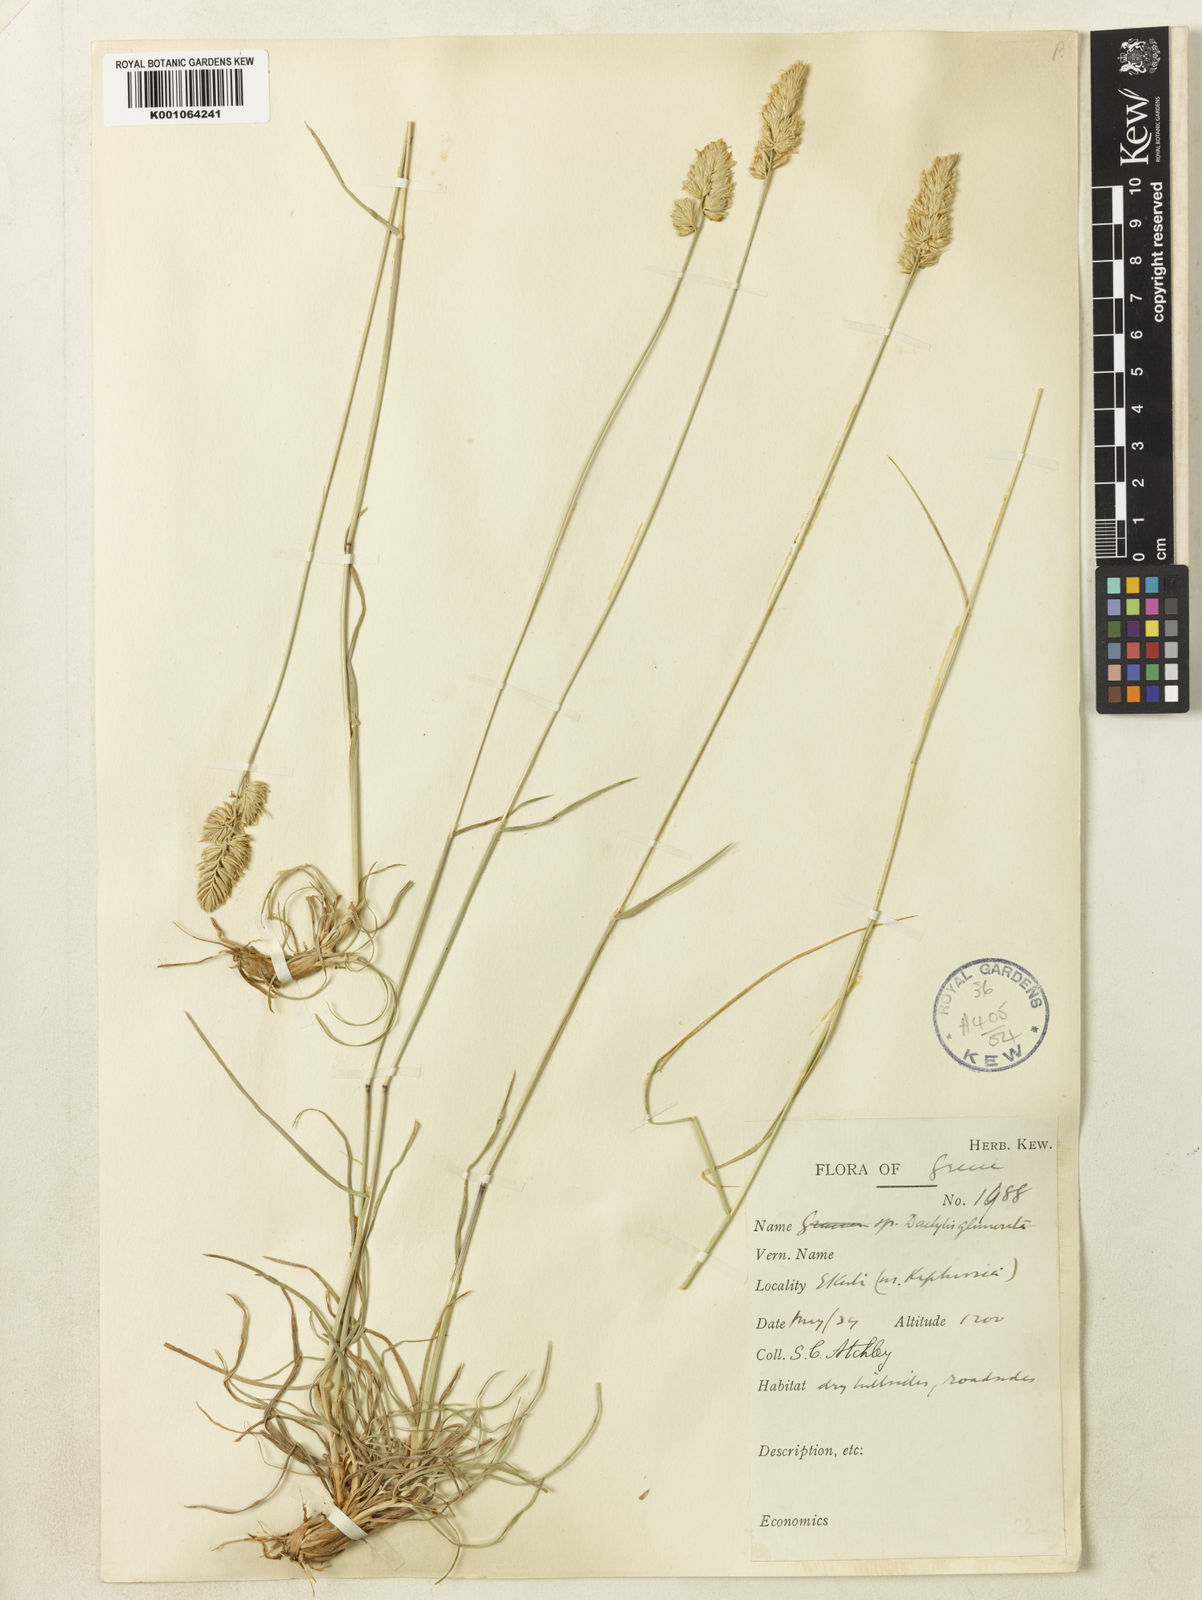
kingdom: Plantae
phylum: Tracheophyta
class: Liliopsida
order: Poales
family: Poaceae
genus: Dactylis
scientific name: Dactylis glomerata
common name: Orchardgrass
